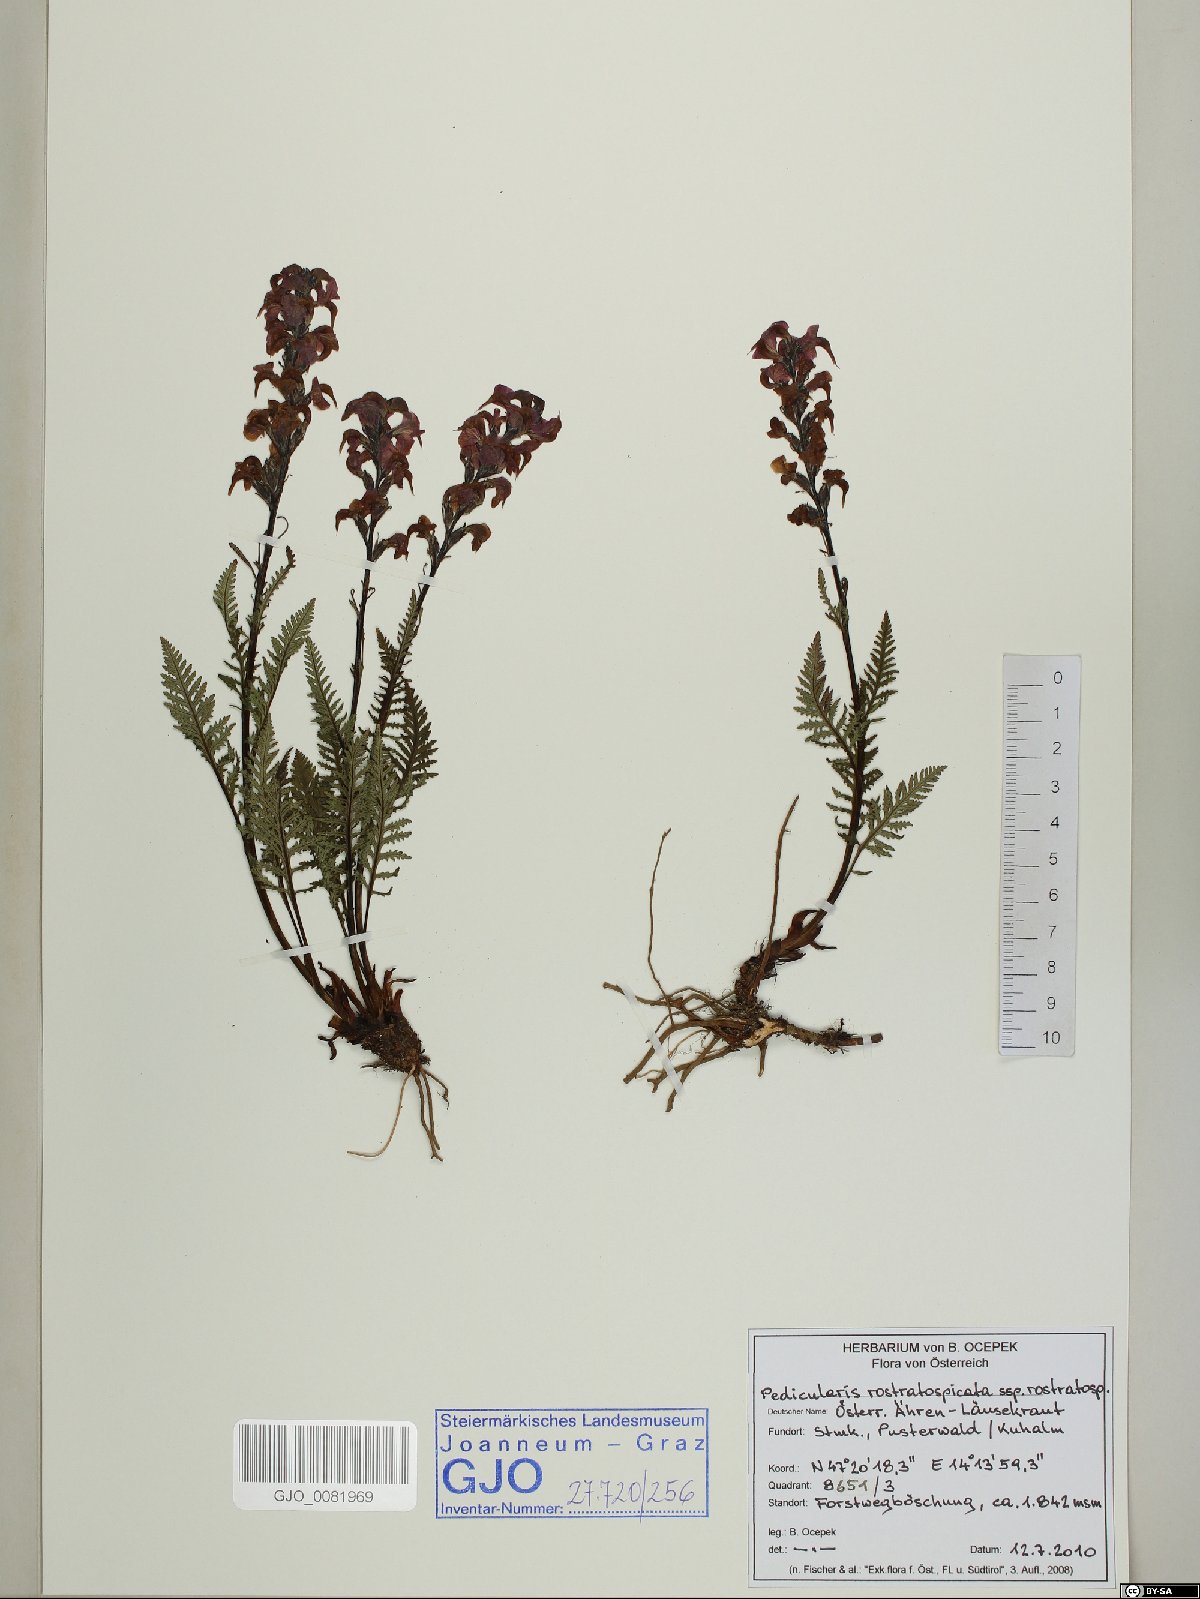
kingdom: Plantae
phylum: Tracheophyta
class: Magnoliopsida
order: Lamiales
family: Orobanchaceae
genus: Pedicularis
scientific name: Pedicularis rostratospicata
